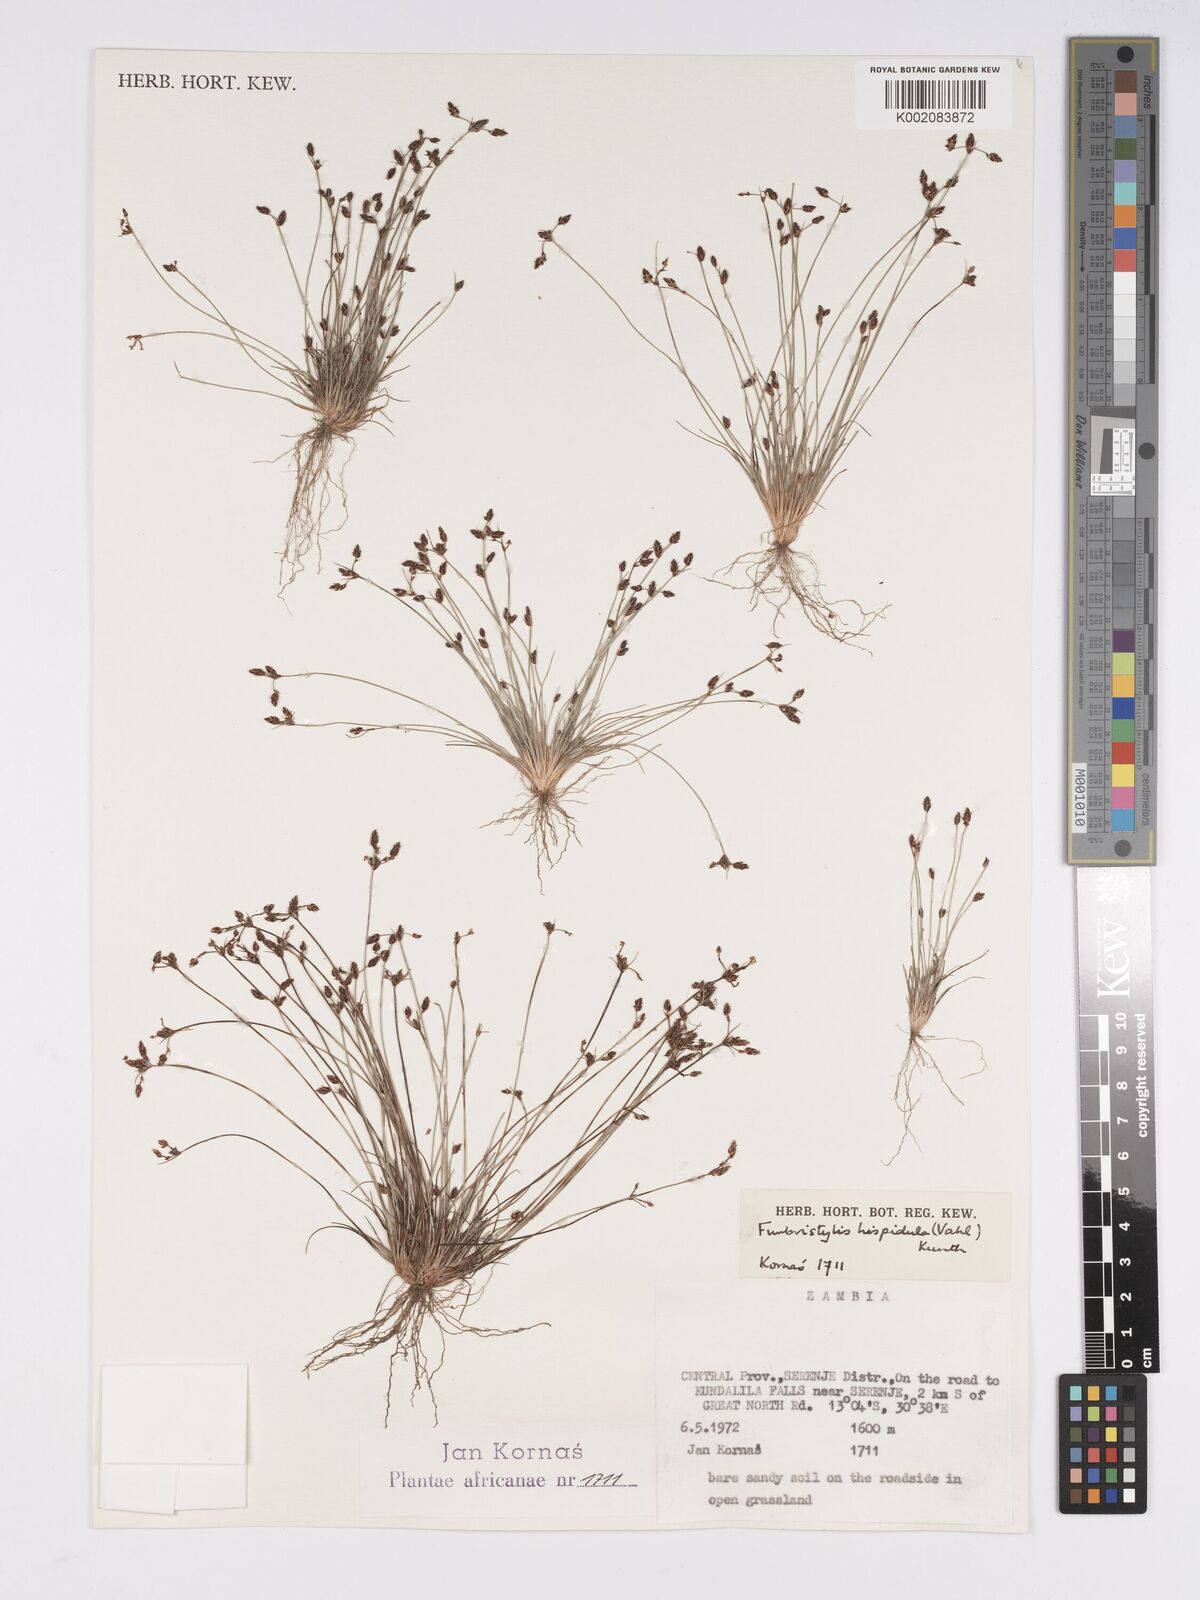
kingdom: Plantae
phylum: Tracheophyta
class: Liliopsida
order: Poales
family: Cyperaceae
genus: Bulbostylis
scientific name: Bulbostylis hispidula
